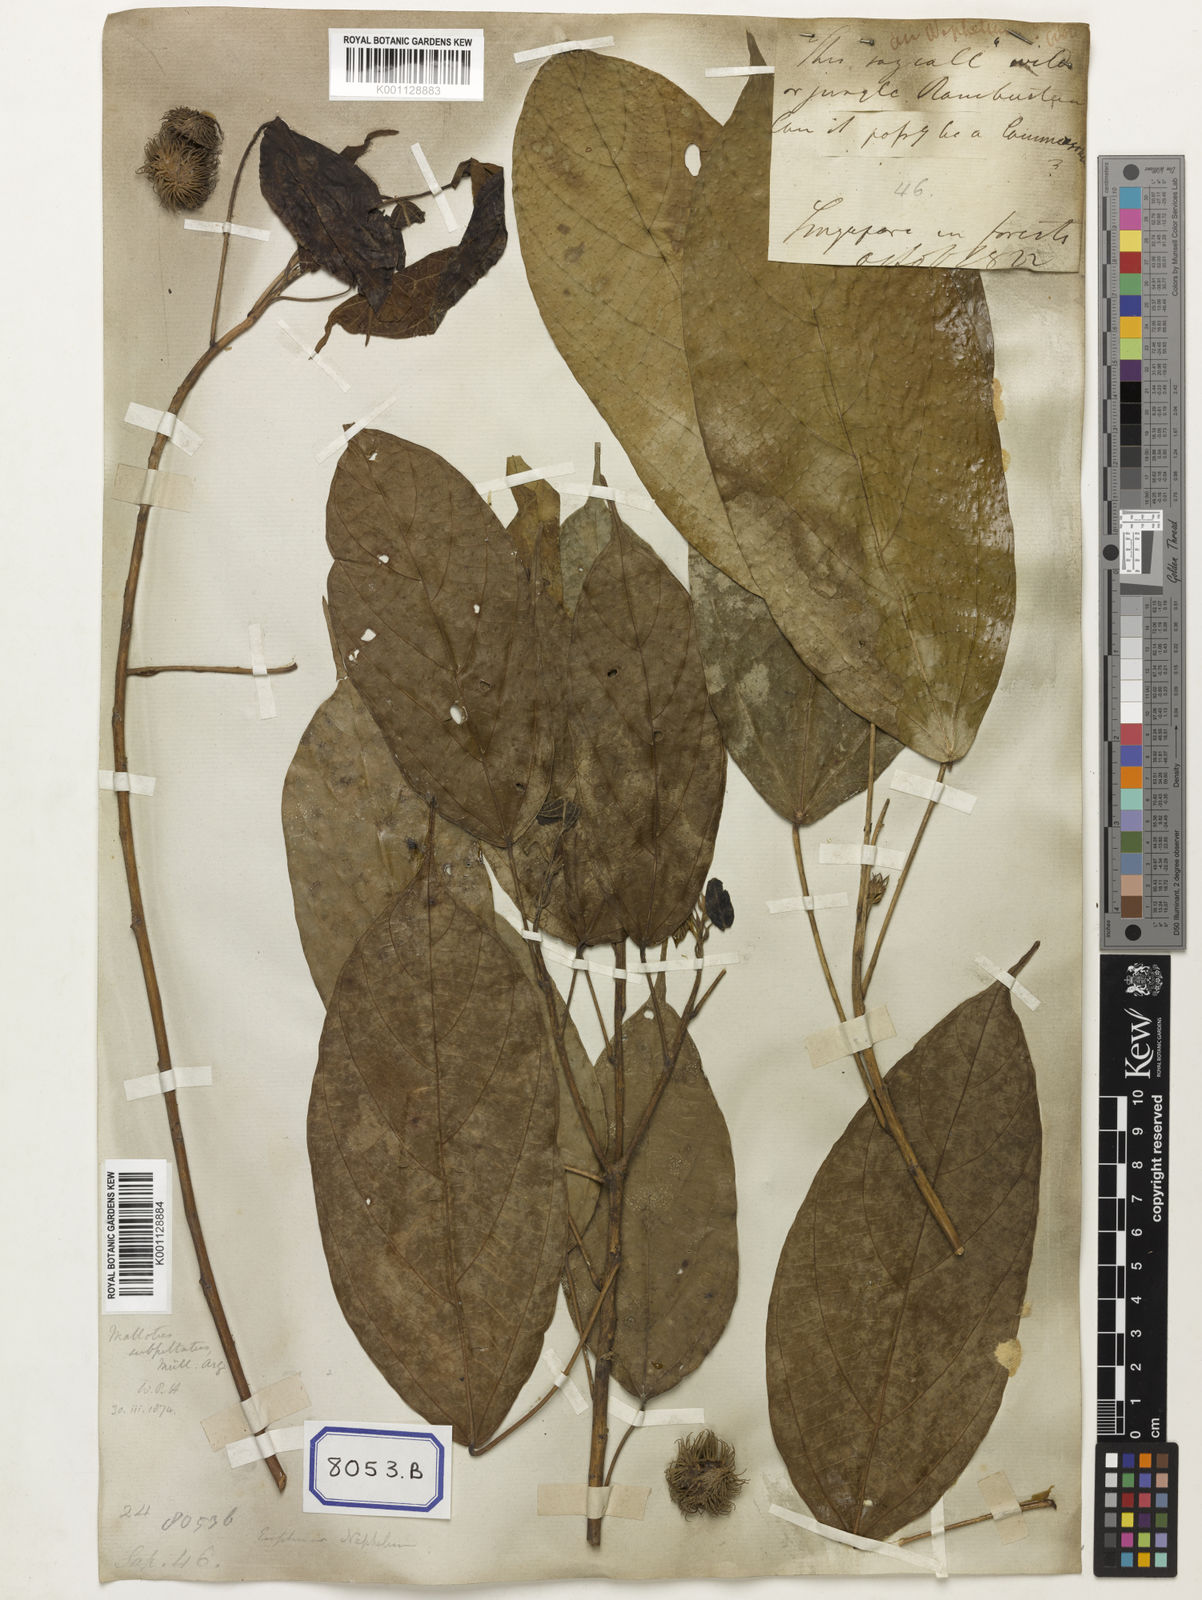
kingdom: Animalia
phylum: Arthropoda
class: Insecta
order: Coleoptera
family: Scarabaeidae
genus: Euphoria
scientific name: Euphoria
